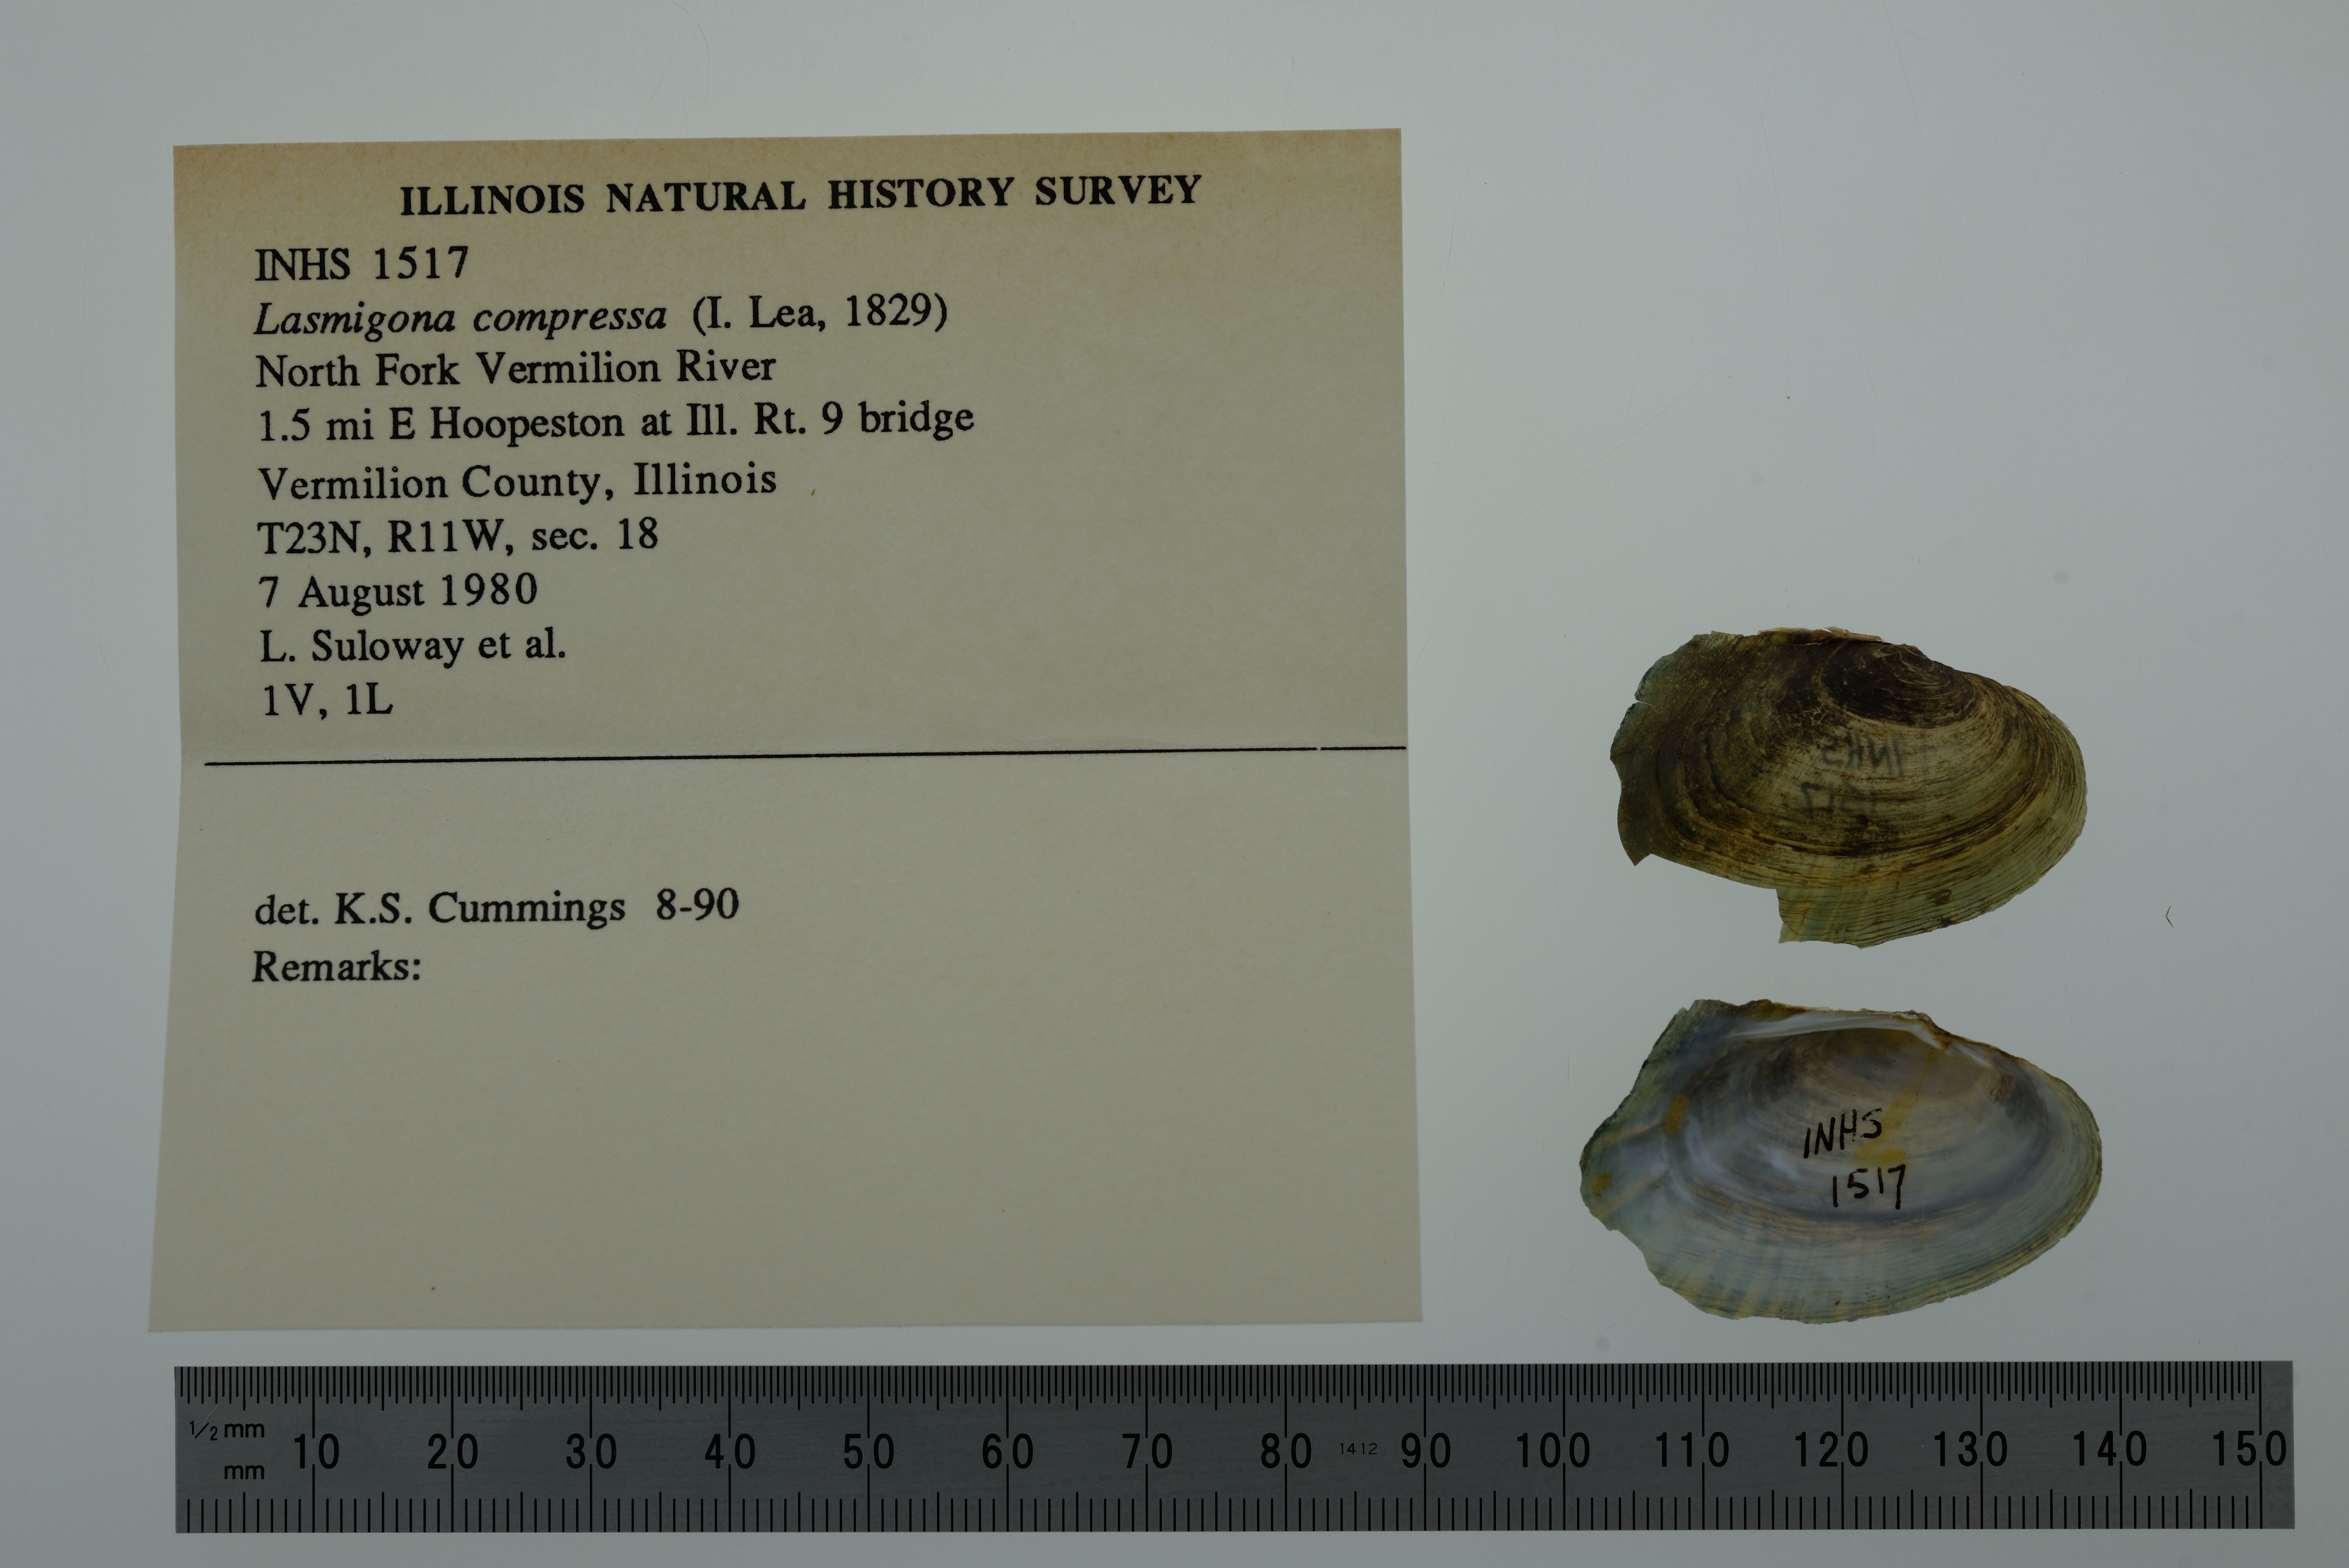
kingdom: Animalia
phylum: Mollusca
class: Bivalvia
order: Unionida
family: Unionidae
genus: Lasmigona
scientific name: Lasmigona compressa
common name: Creek heelsplitter
